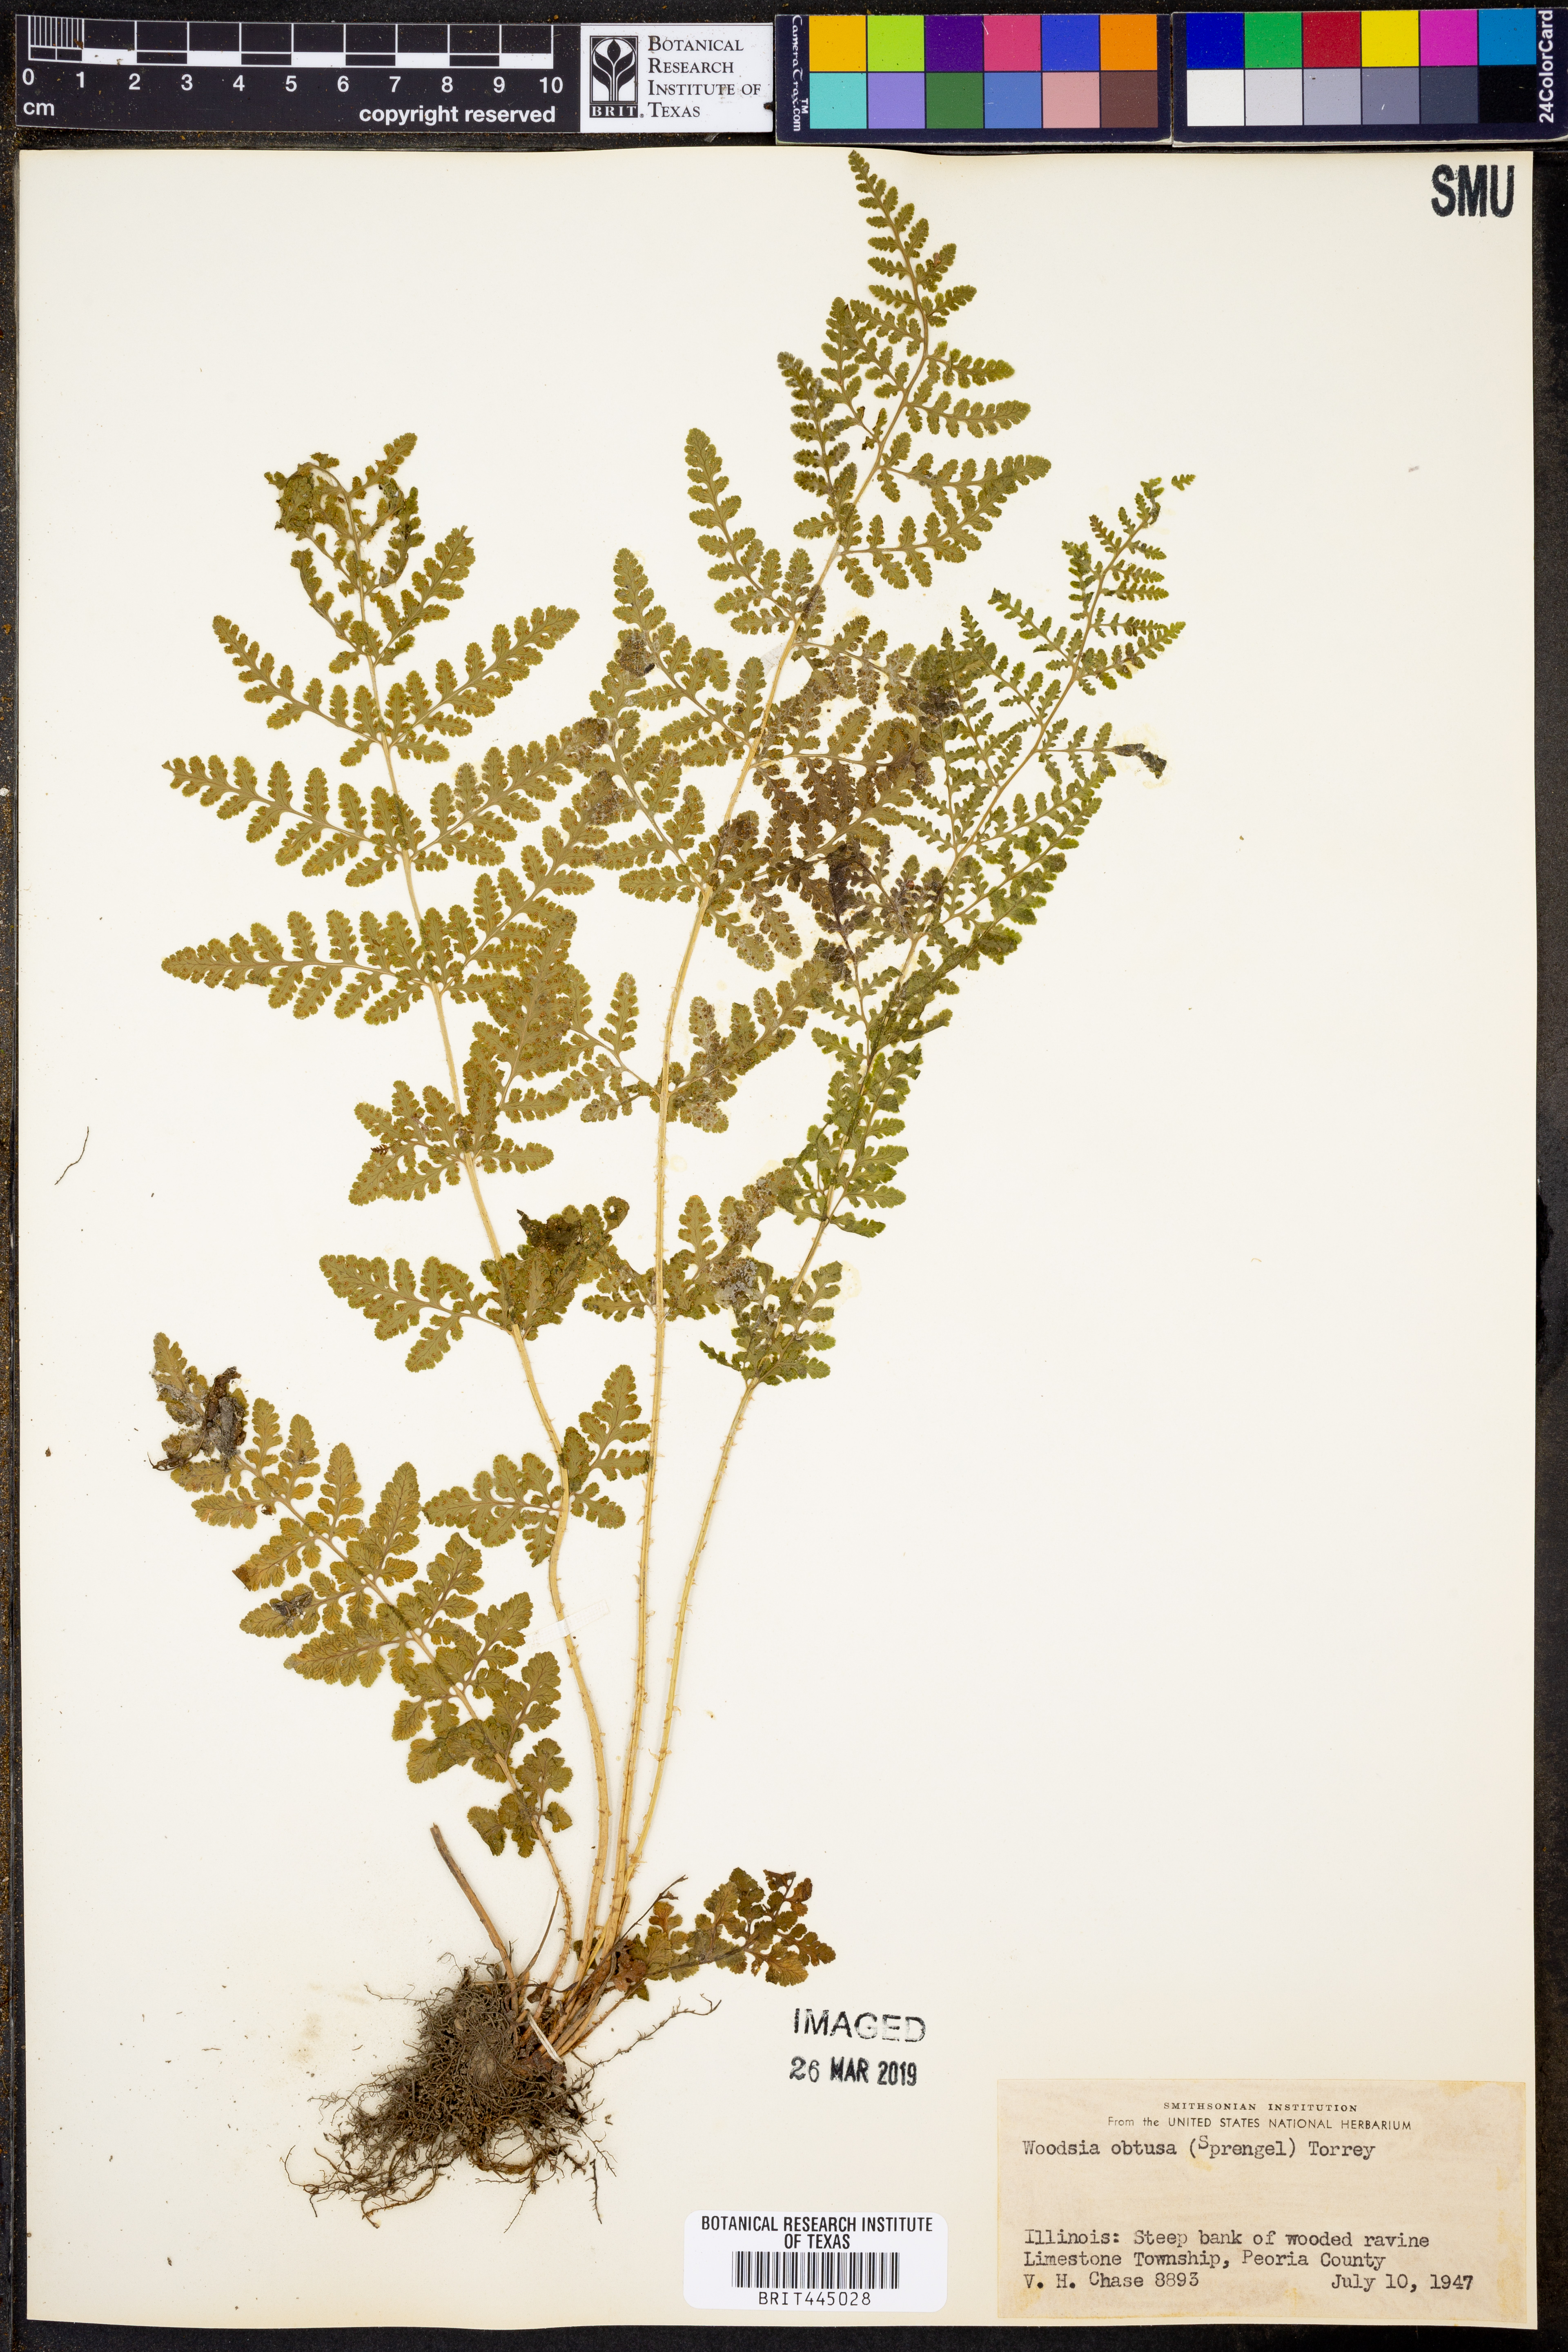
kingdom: Plantae
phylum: Tracheophyta
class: Polypodiopsida
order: Polypodiales
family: Woodsiaceae
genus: Physematium
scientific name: Physematium obtusum
